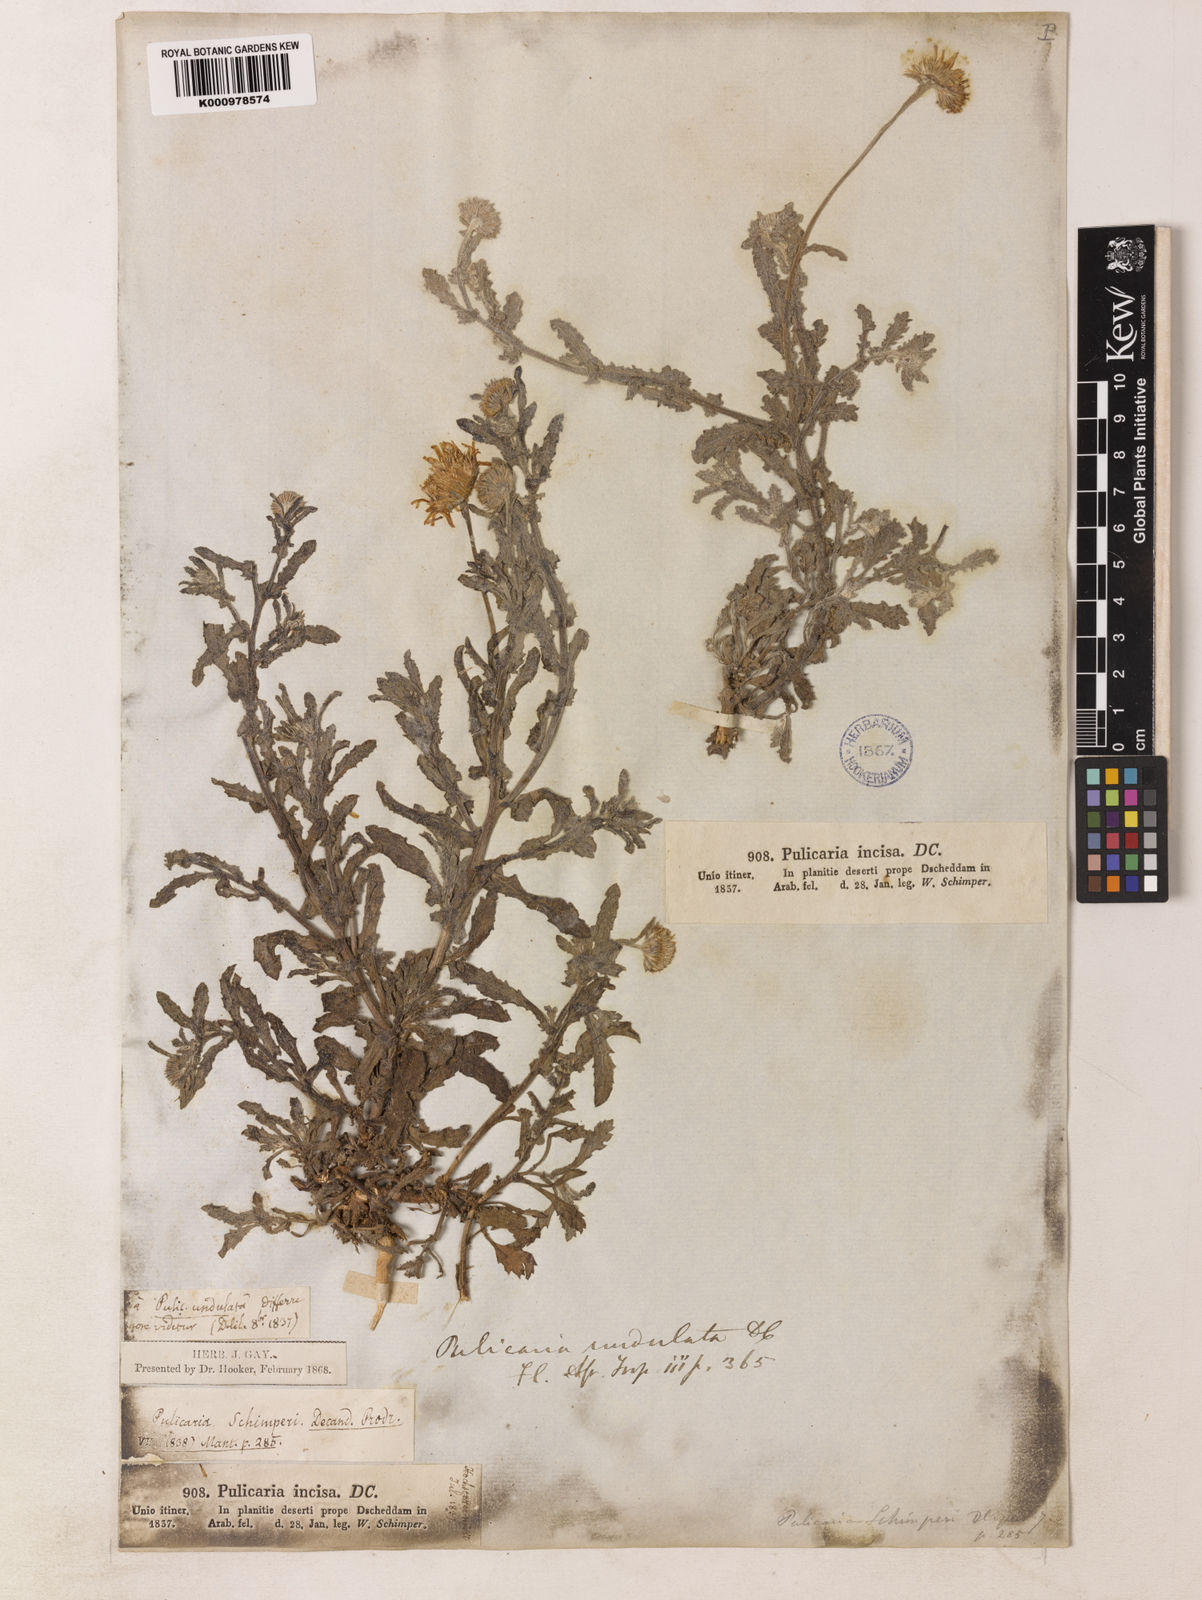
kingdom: Plantae
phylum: Tracheophyta
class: Magnoliopsida
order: Asterales
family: Asteraceae
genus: Pulicaria
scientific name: Pulicaria schimperi
